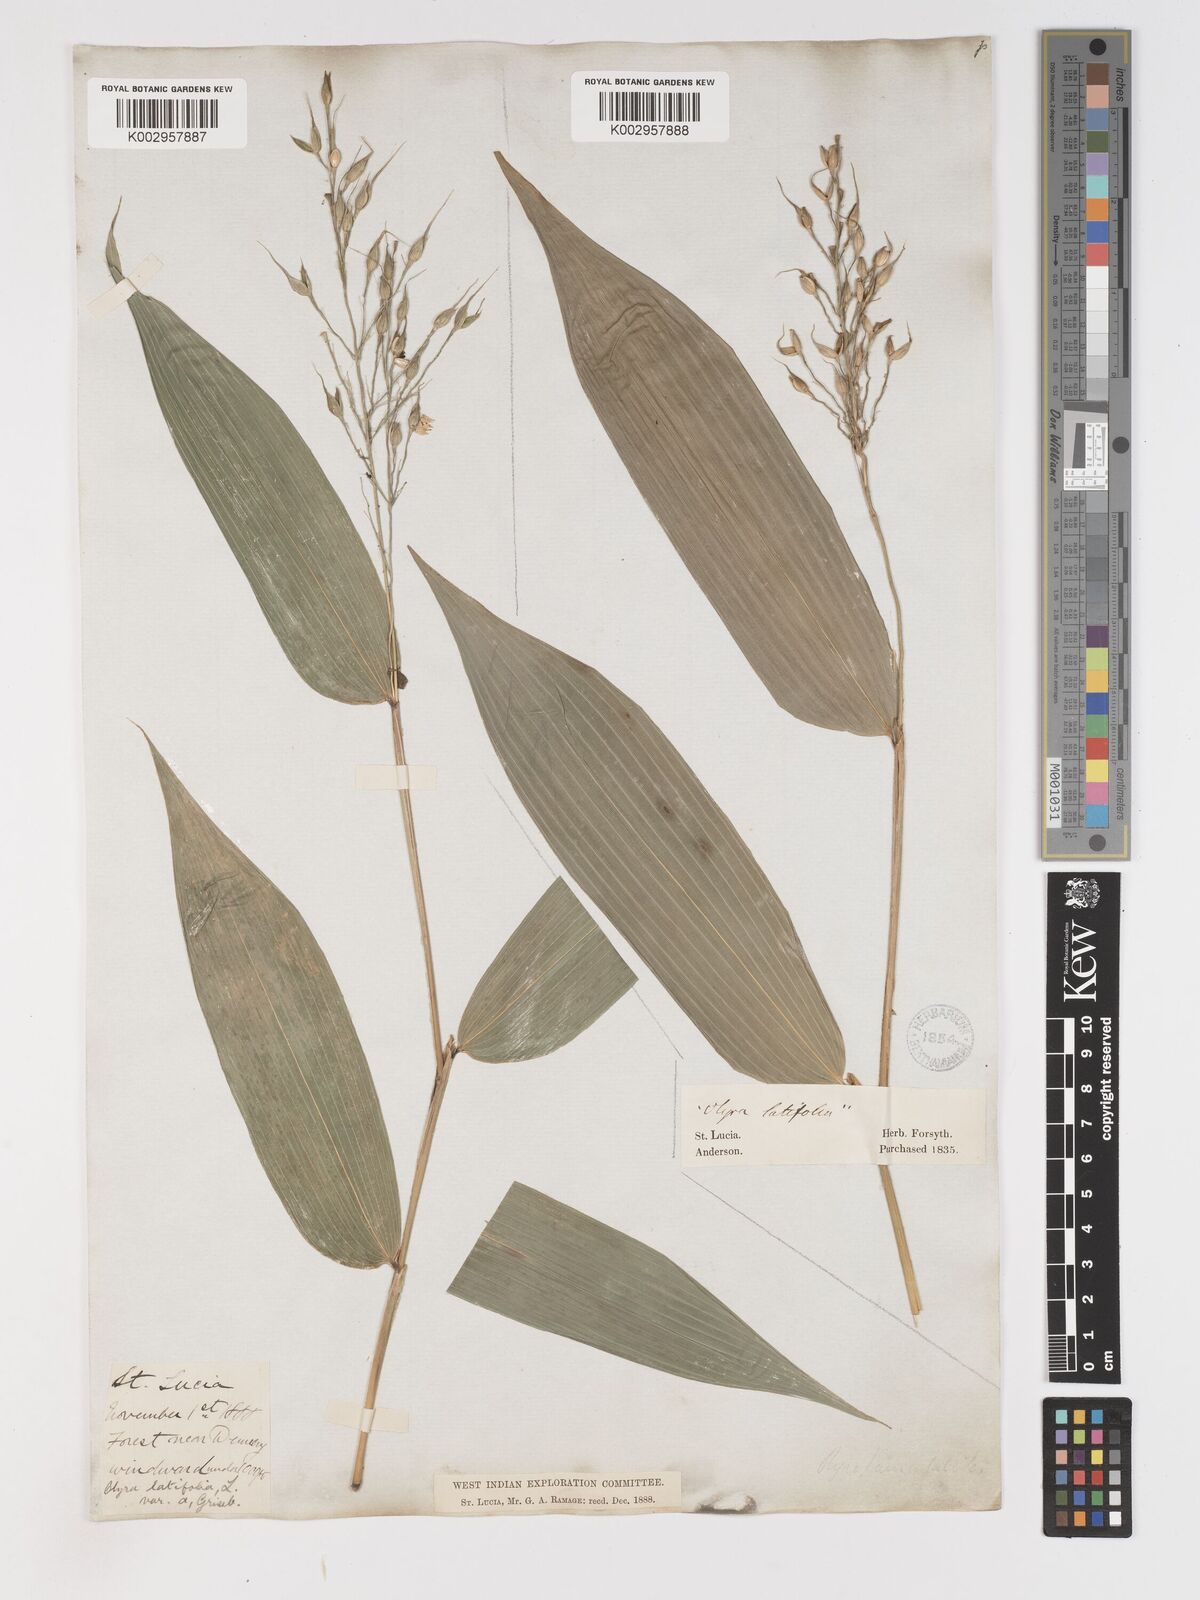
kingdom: Plantae
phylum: Tracheophyta
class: Liliopsida
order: Poales
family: Poaceae
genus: Olyra
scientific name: Olyra latifolia
